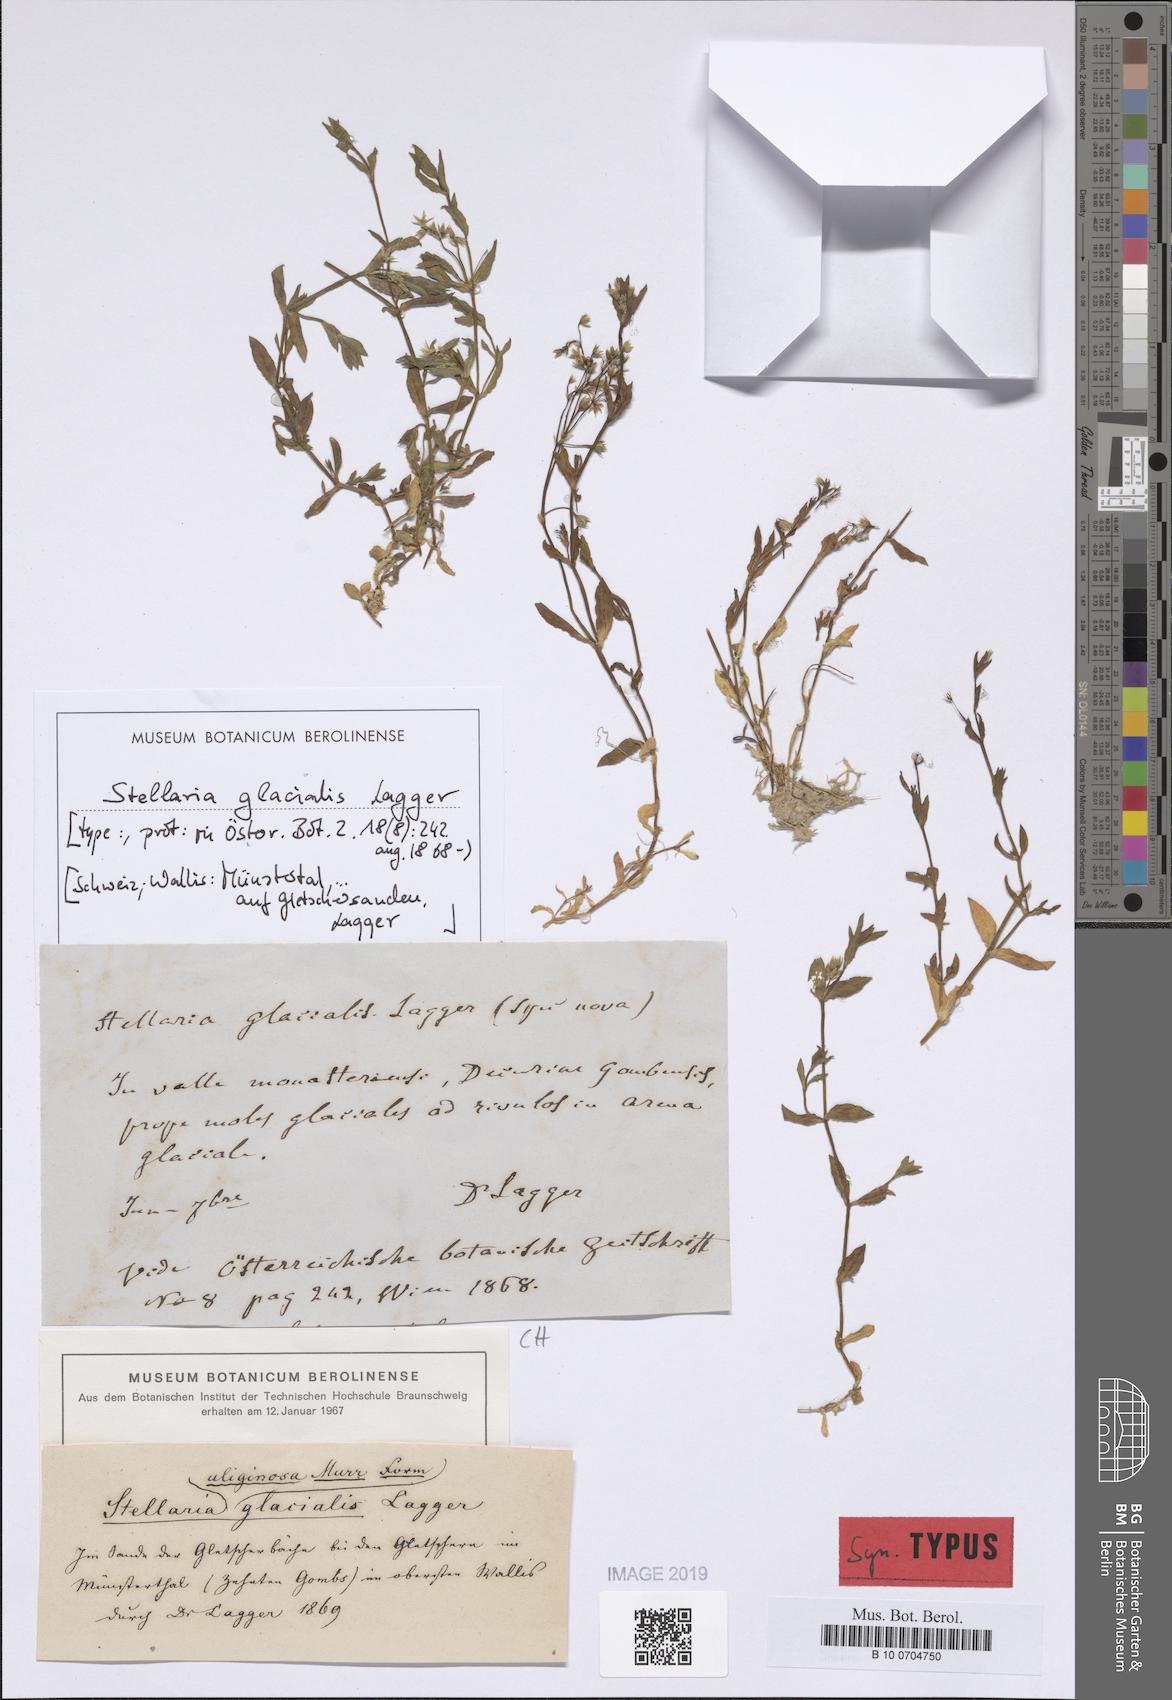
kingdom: Plantae
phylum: Tracheophyta
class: Magnoliopsida
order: Caryophyllales
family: Caryophyllaceae
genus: Stellaria
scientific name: Stellaria alsine
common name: Bog stitchwort
